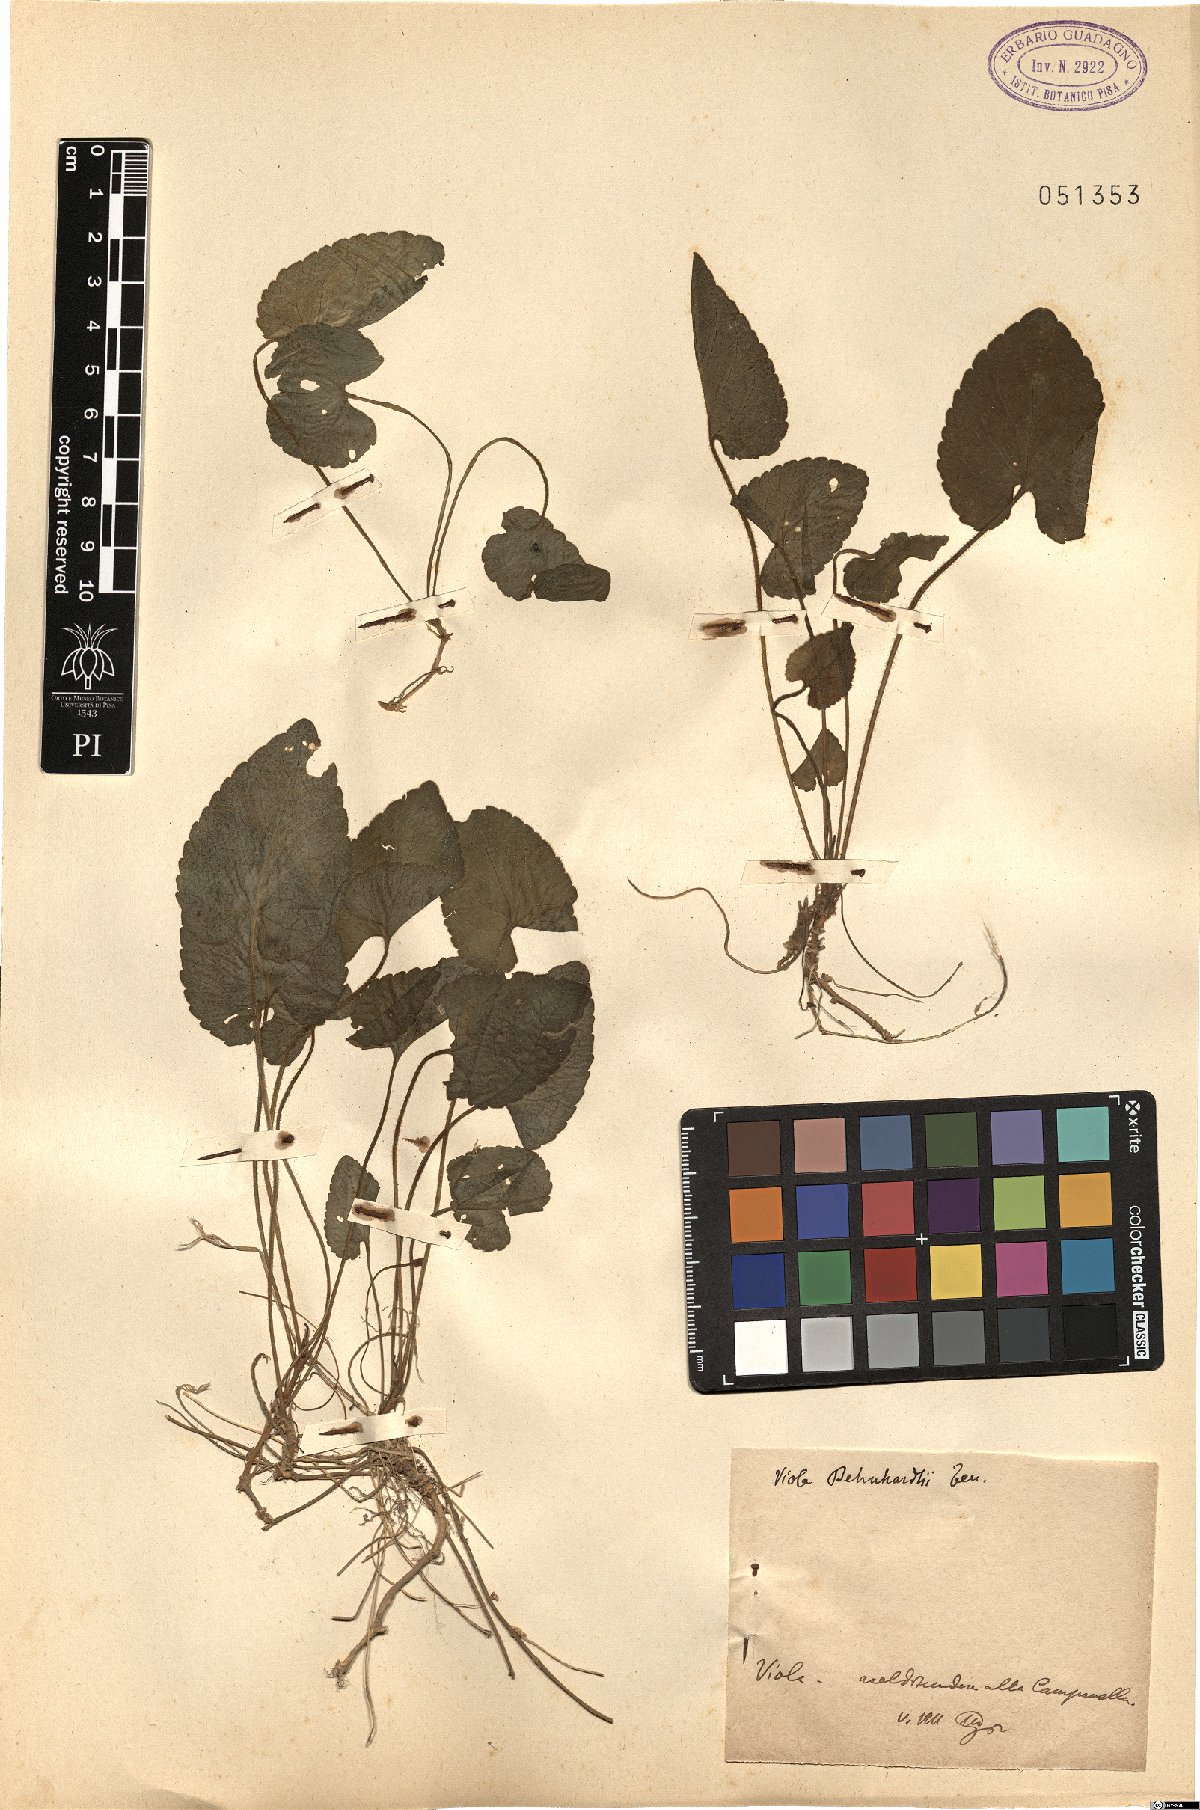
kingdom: Plantae
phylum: Tracheophyta
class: Magnoliopsida
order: Malpighiales
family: Violaceae
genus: Viola
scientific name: Viola alba
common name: White violet
